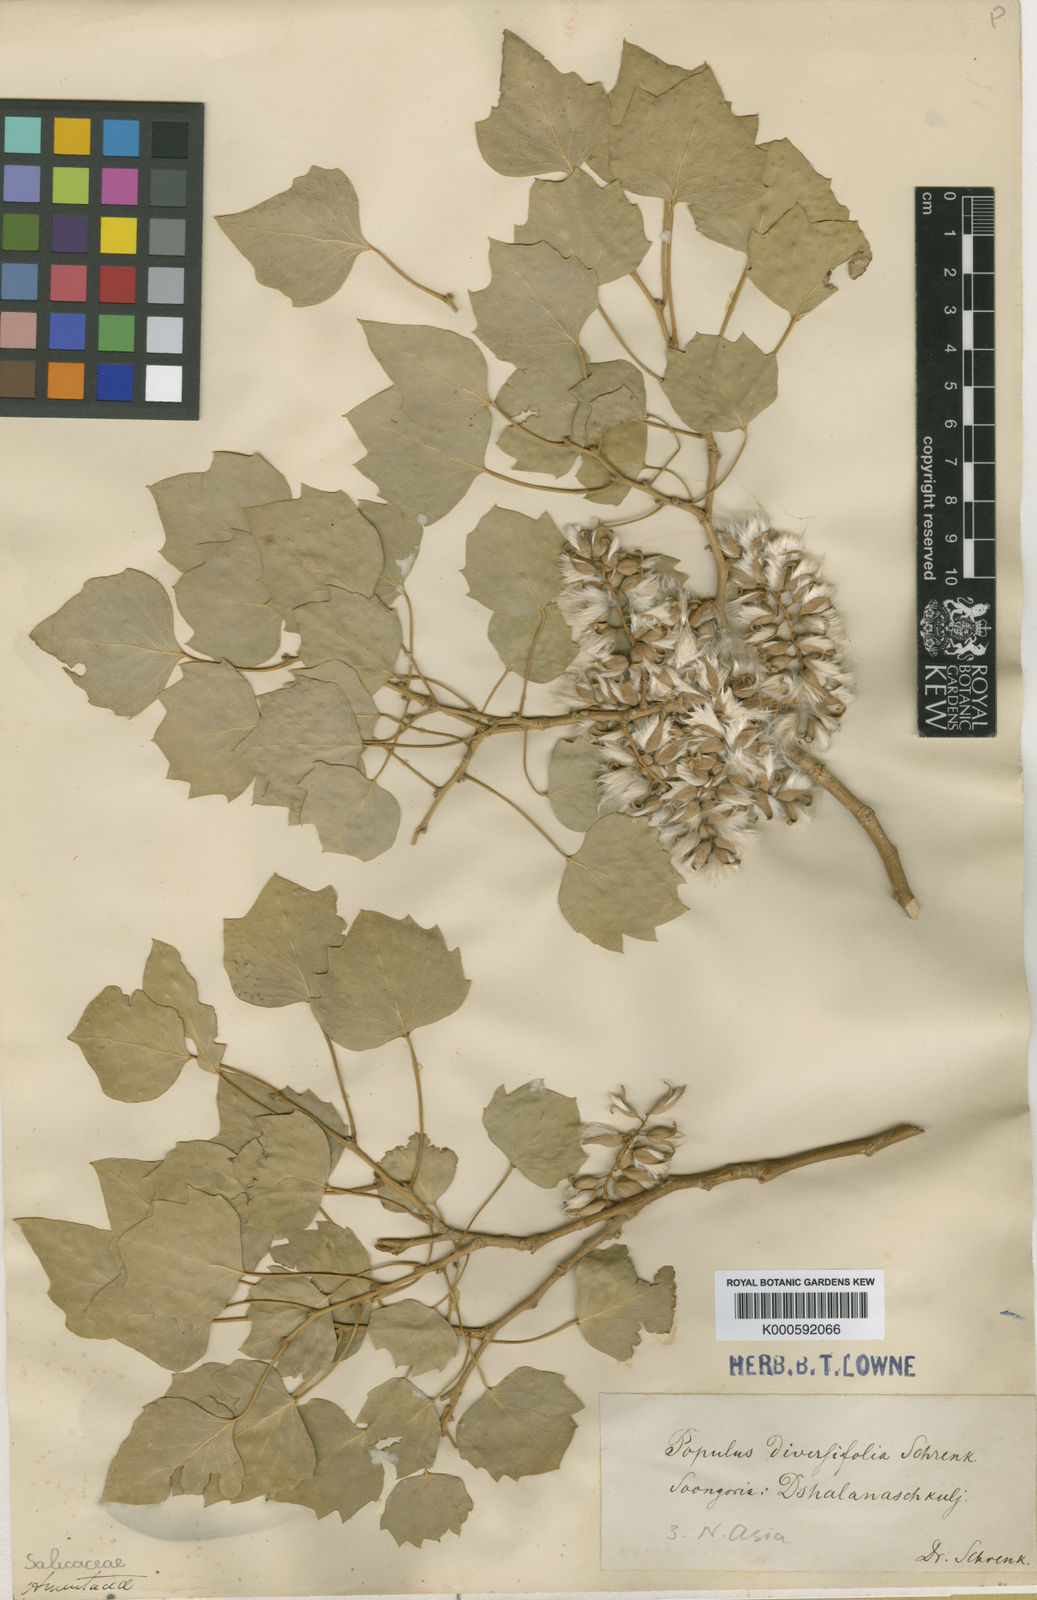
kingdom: Plantae
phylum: Tracheophyta
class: Magnoliopsida
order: Malpighiales
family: Salicaceae
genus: Populus
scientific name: Populus euphratica
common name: Euphrates poplar
